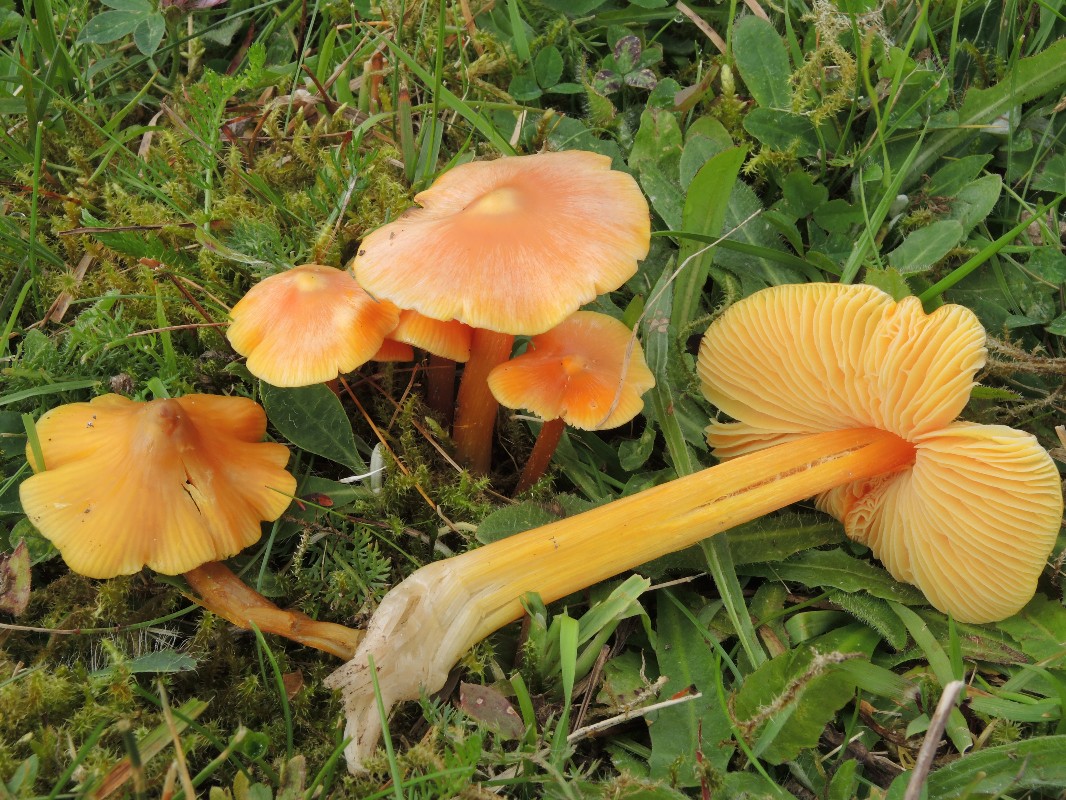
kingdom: Fungi
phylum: Basidiomycota
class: Agaricomycetes
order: Agaricales
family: Hygrophoraceae
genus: Hygrocybe
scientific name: Hygrocybe acutoconica
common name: spidspuklet vokshat
